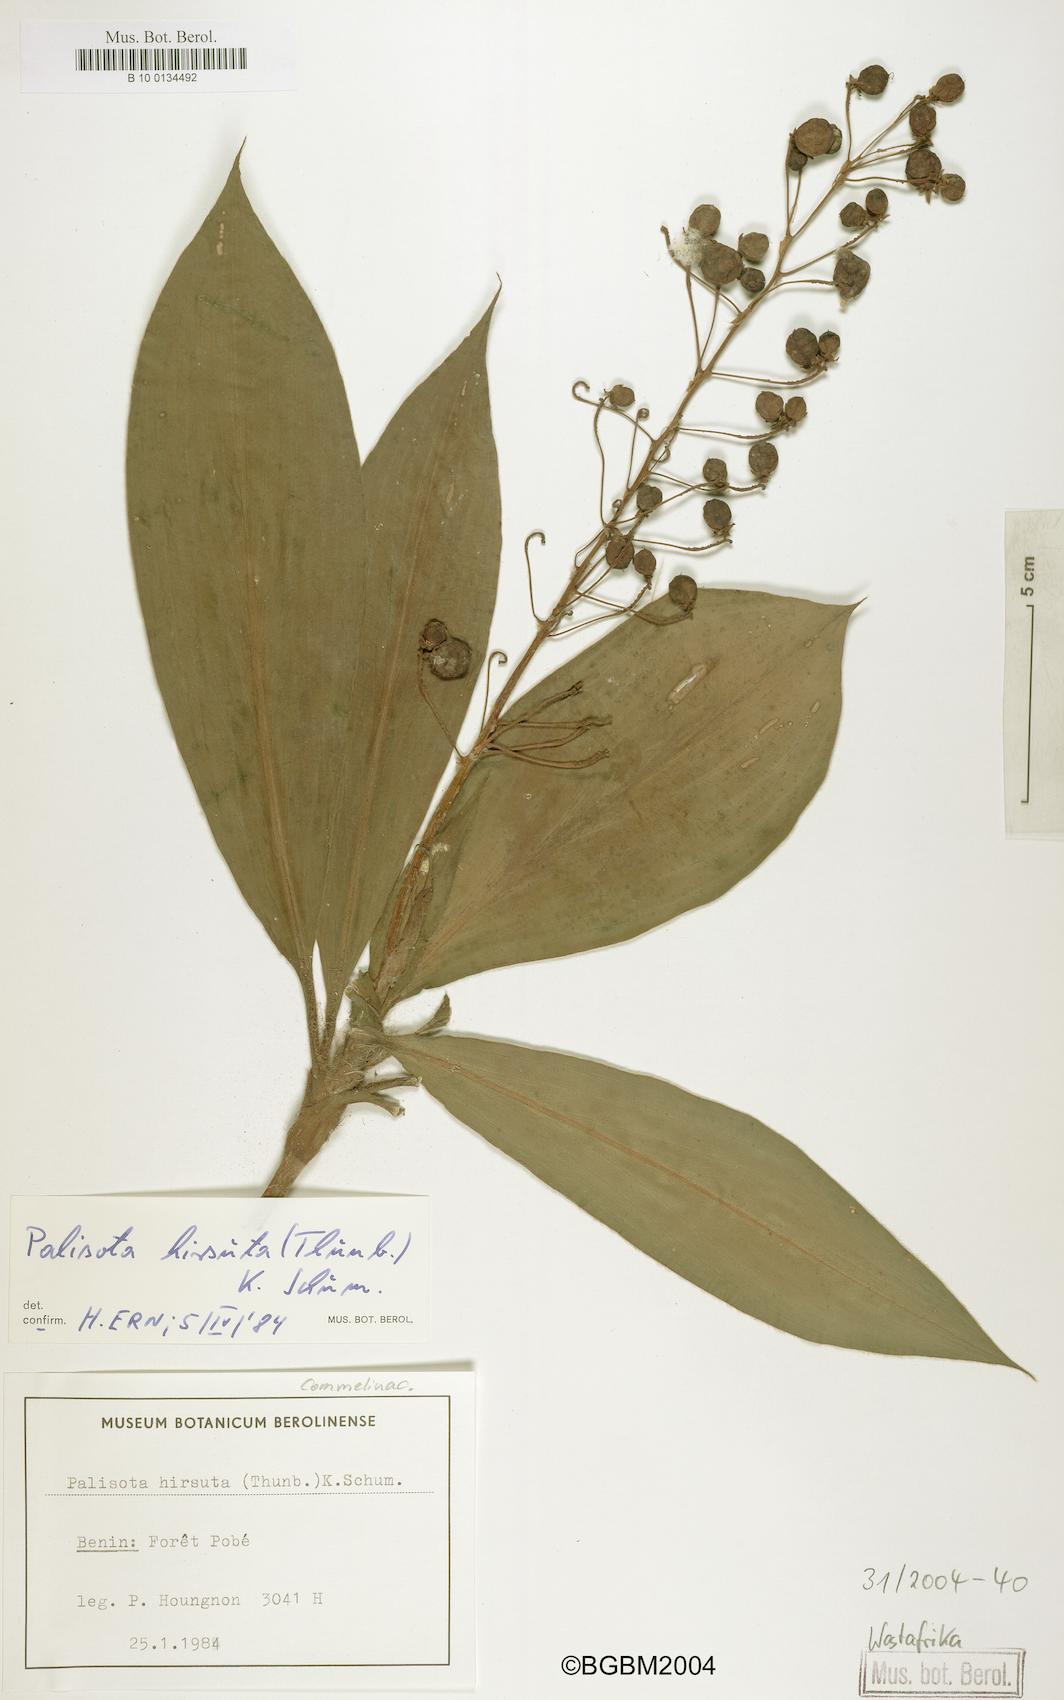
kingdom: Plantae
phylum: Tracheophyta
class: Liliopsida
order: Commelinales
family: Commelinaceae
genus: Palisota
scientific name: Palisota hirsuta
